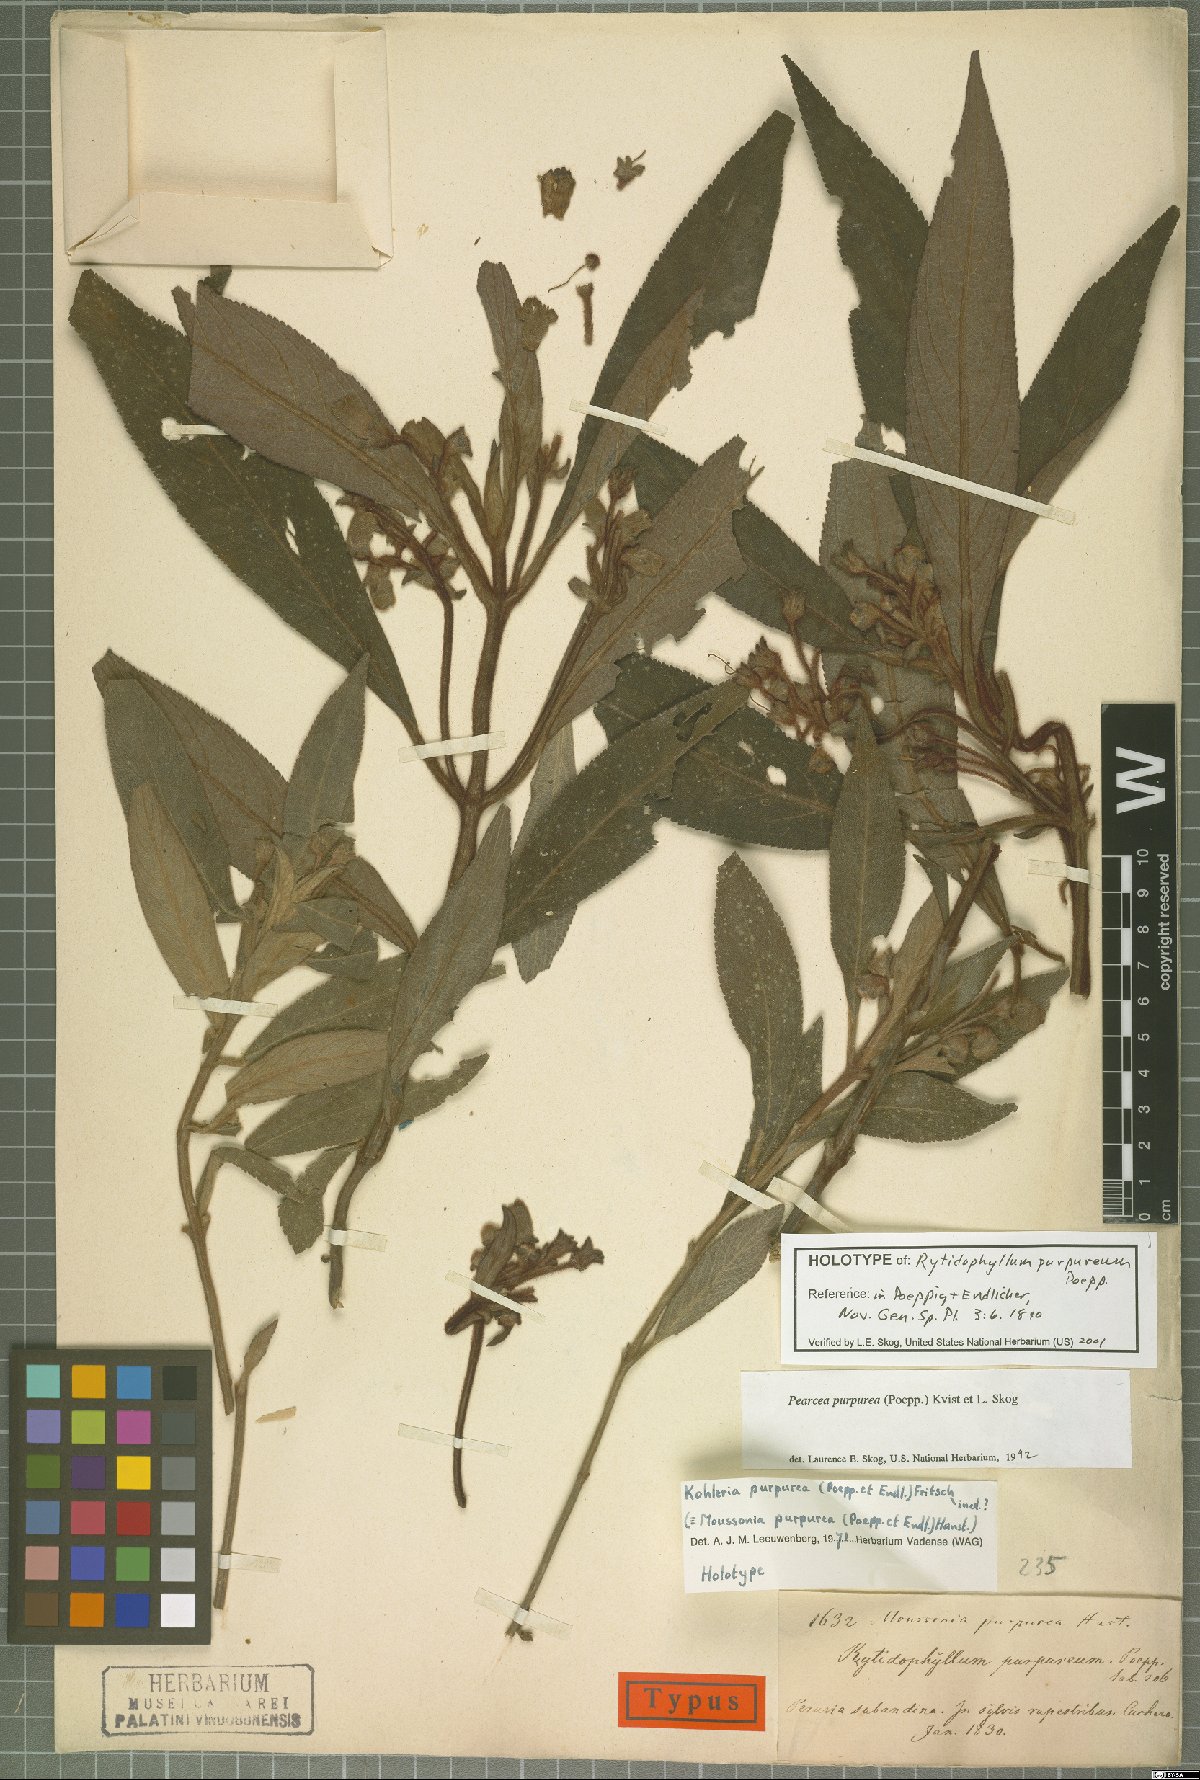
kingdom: Plantae
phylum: Tracheophyta
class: Magnoliopsida
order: Lamiales
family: Gesneriaceae
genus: Pearcea
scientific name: Pearcea purpurea
